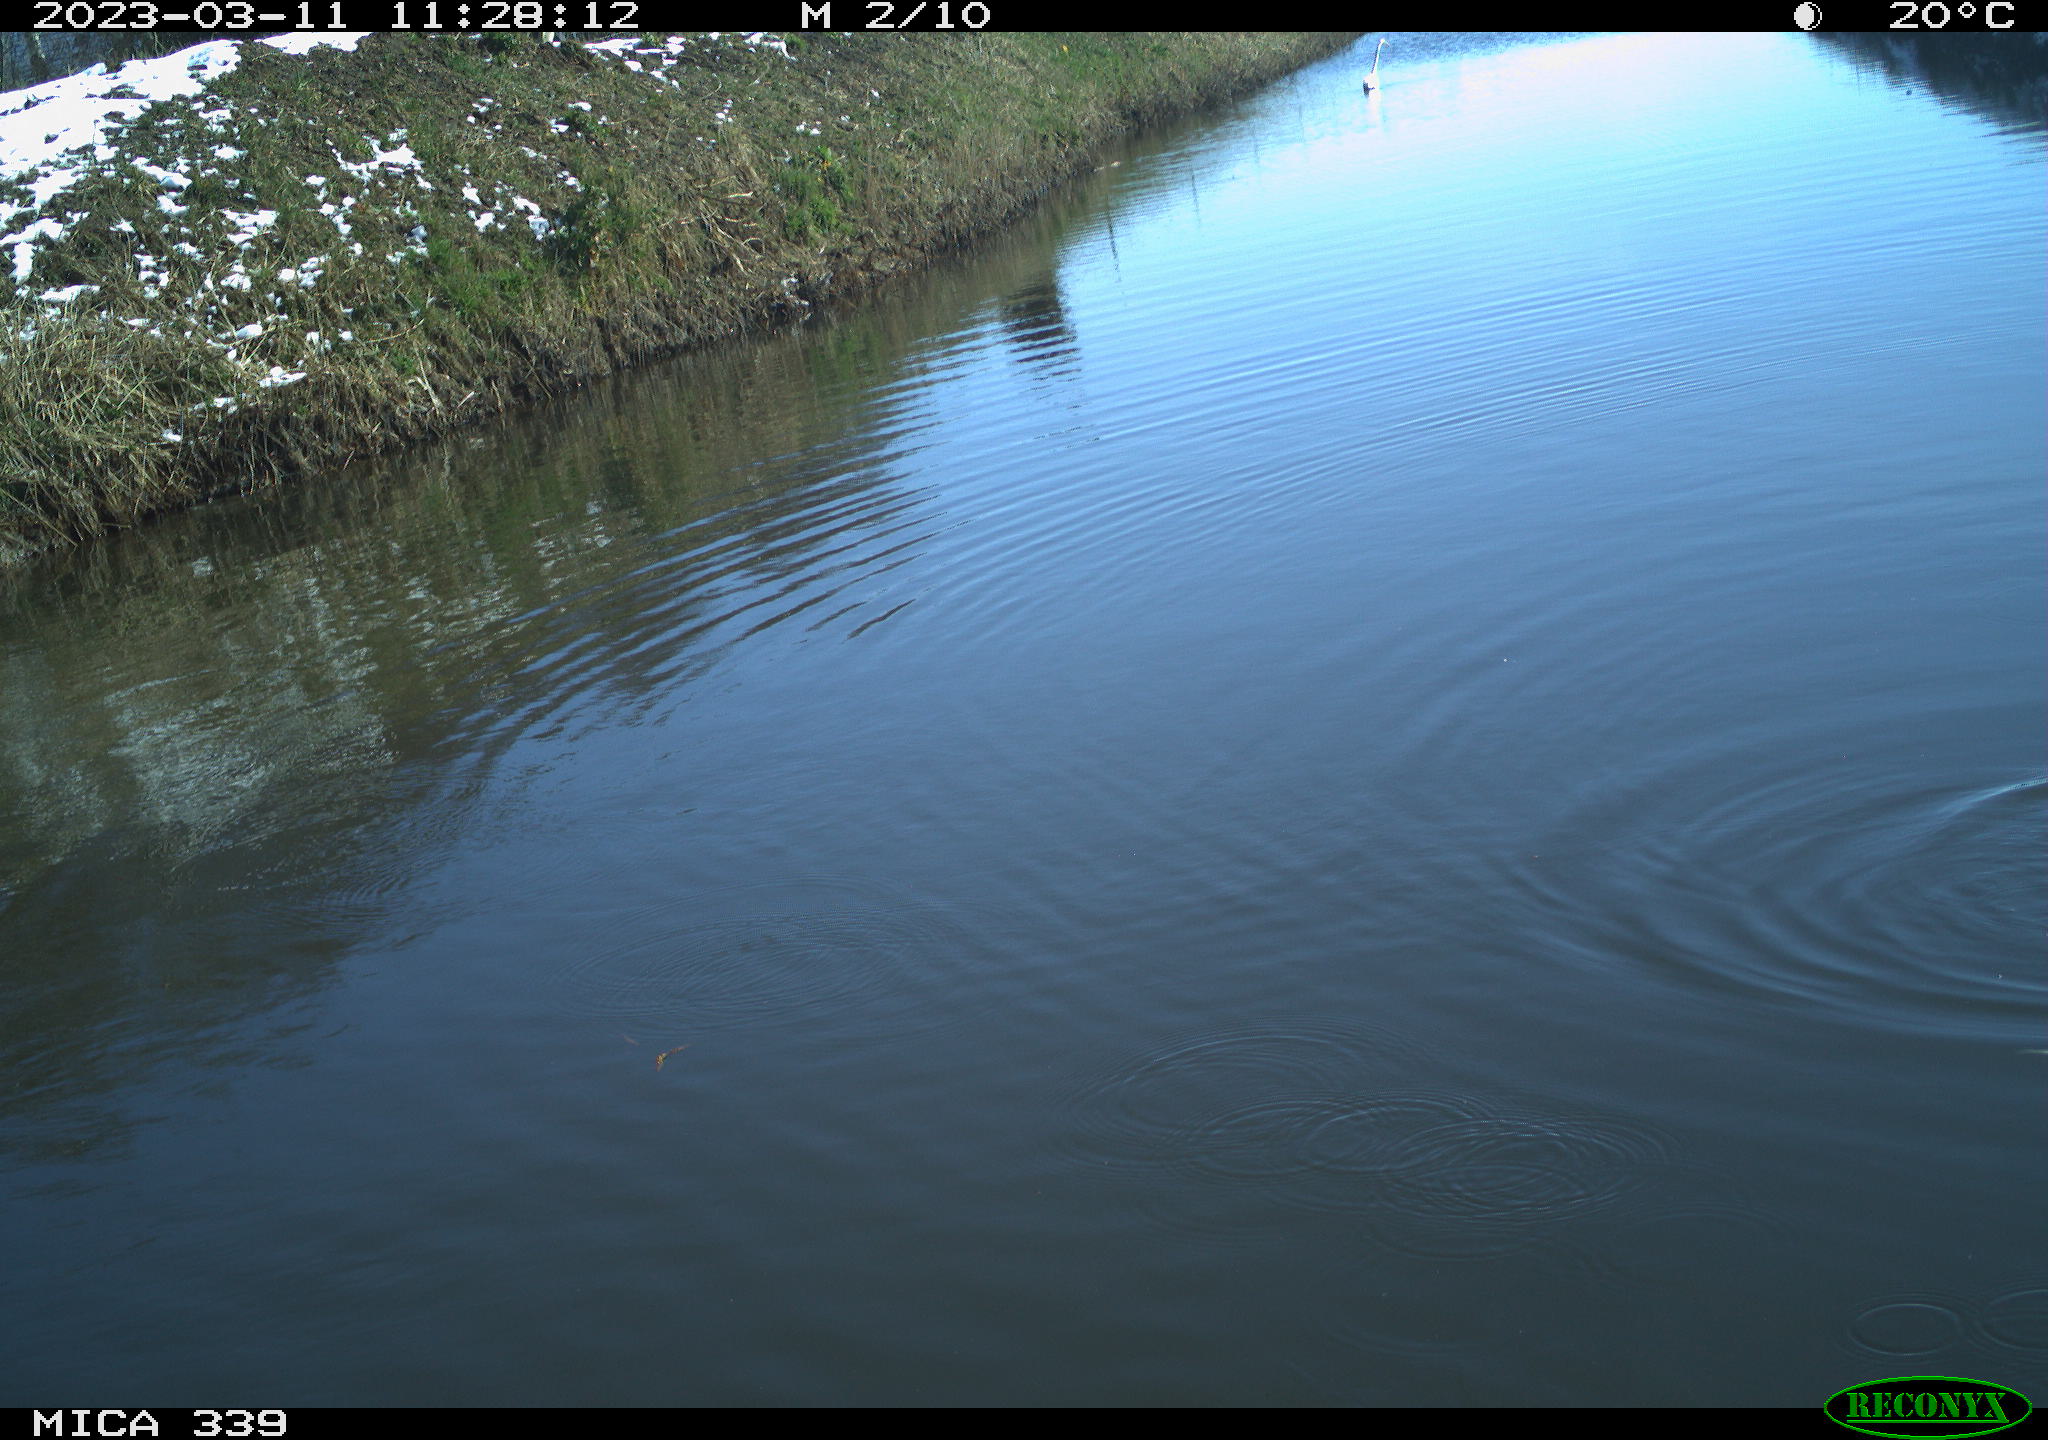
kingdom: Animalia
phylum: Chordata
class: Aves
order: Pelecaniformes
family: Ardeidae
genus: Ardea
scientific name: Ardea cinerea
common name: Grey heron
